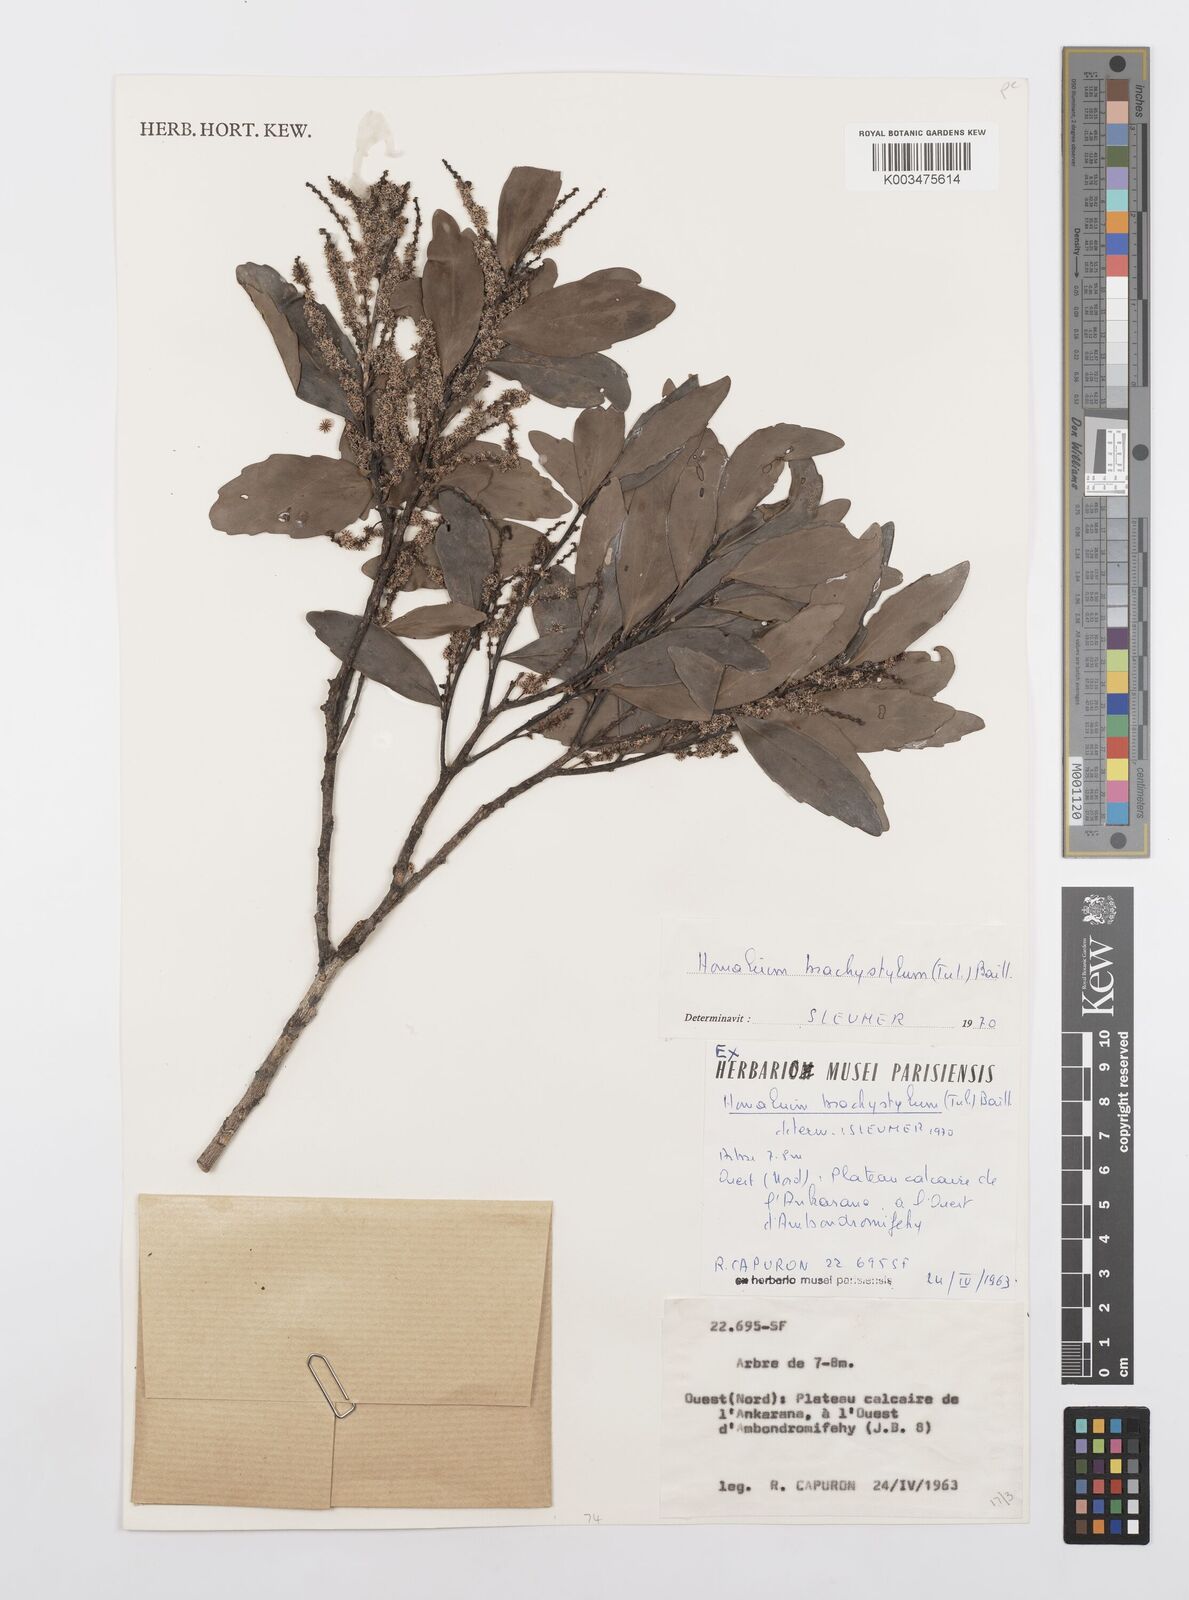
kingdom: Plantae
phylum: Tracheophyta
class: Magnoliopsida
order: Malpighiales
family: Salicaceae
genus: Homalium
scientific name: Homalium brachystylis
